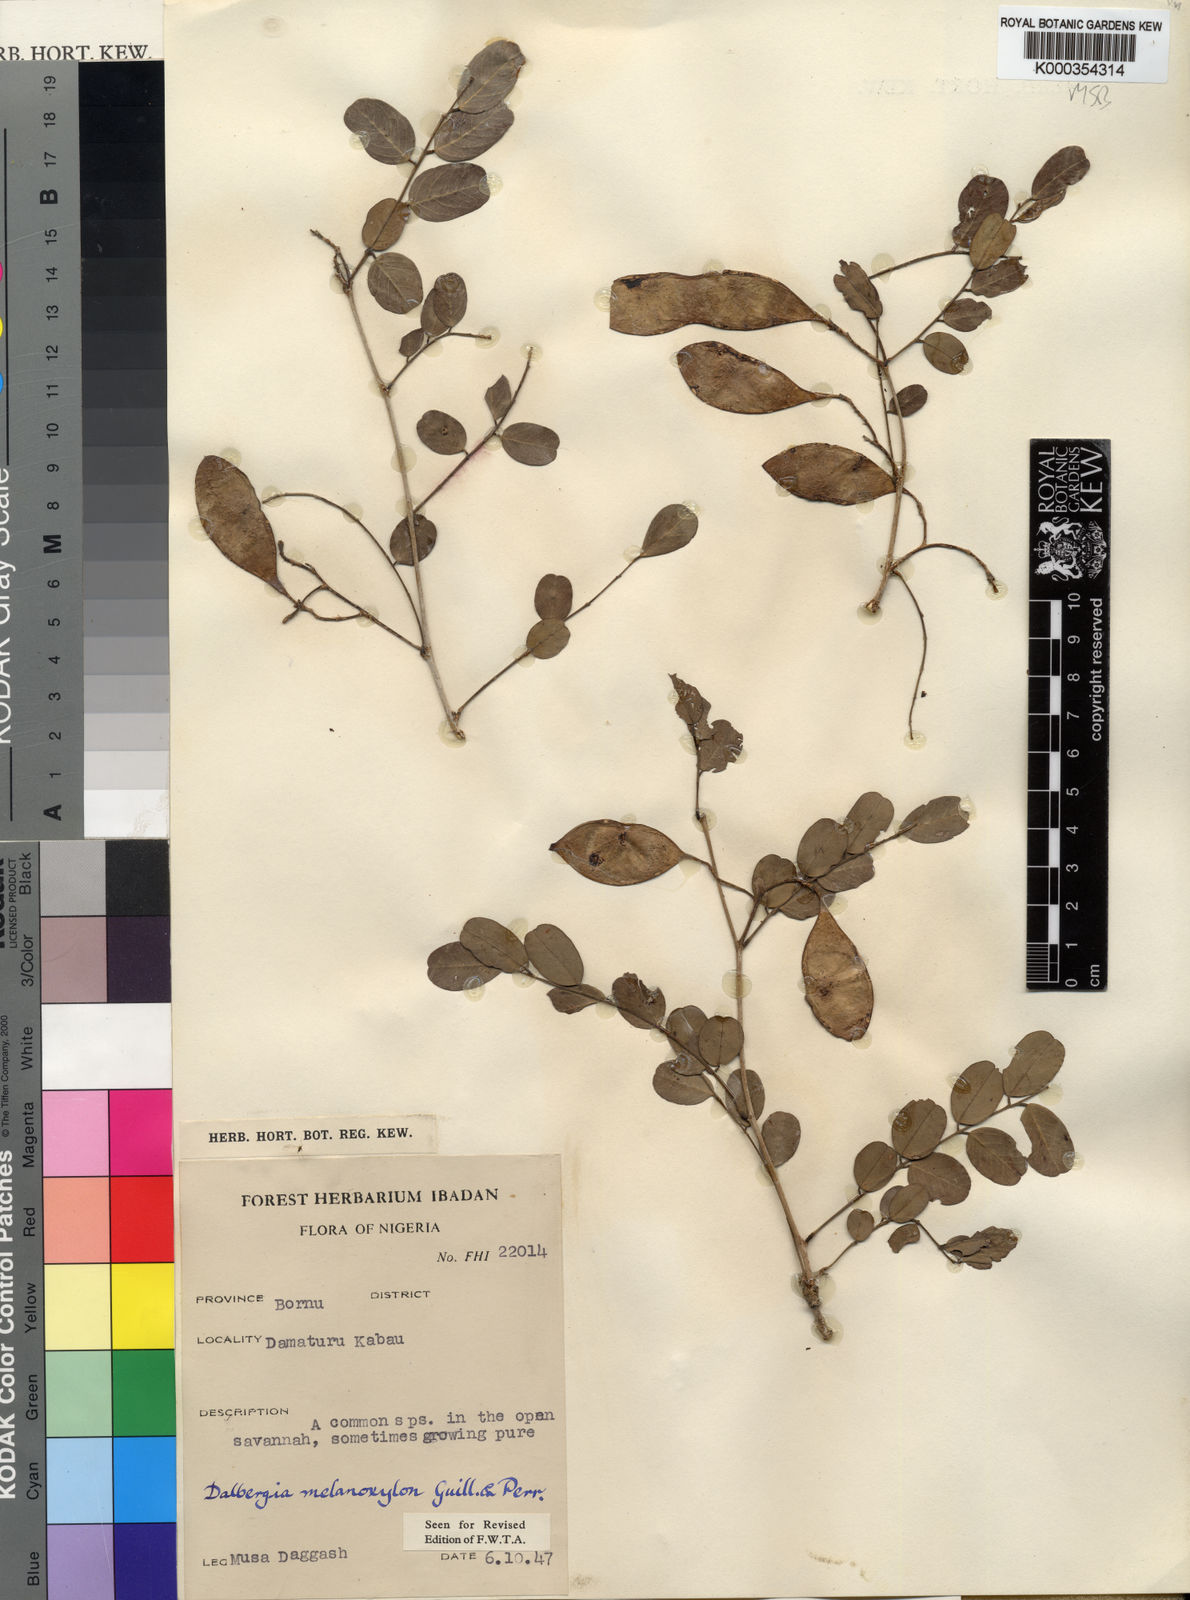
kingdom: Plantae
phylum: Tracheophyta
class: Magnoliopsida
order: Fabales
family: Fabaceae
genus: Dalbergia
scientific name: Dalbergia melanoxylon
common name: African blackwood
